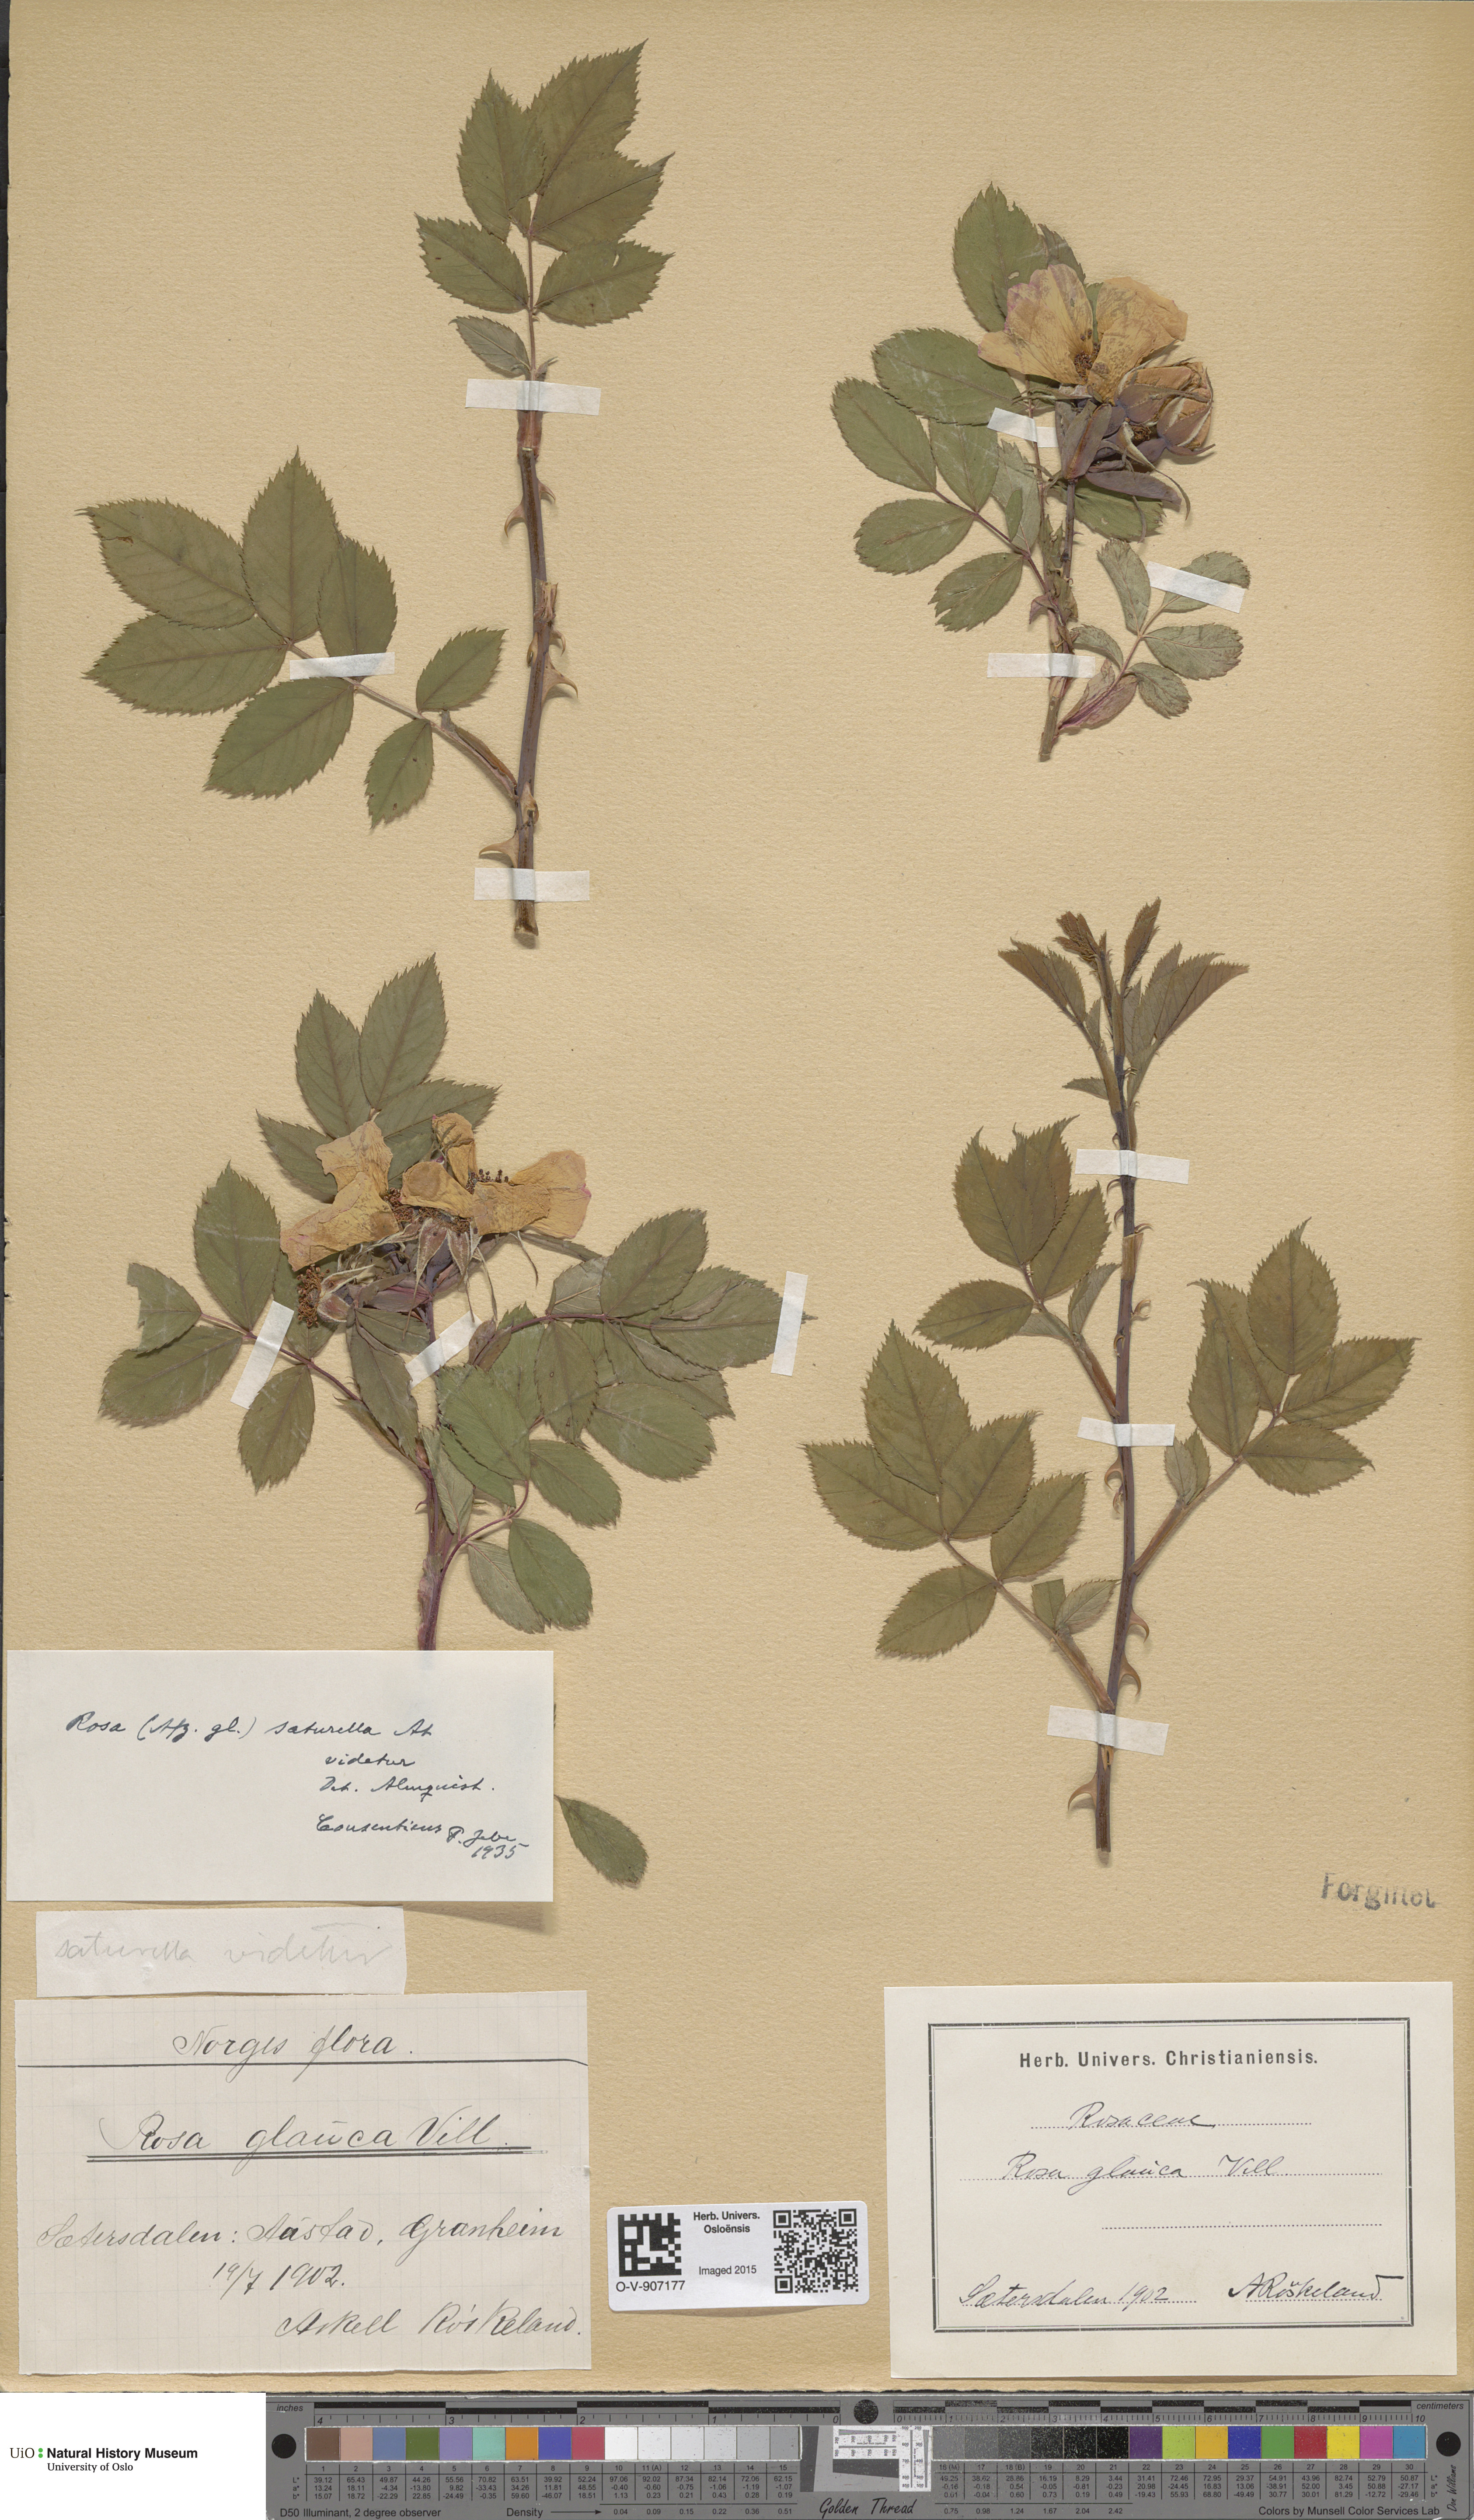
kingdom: Plantae
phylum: Tracheophyta
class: Magnoliopsida
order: Rosales
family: Rosaceae
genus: Rosa
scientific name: Rosa glauca
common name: Redleaf rose
